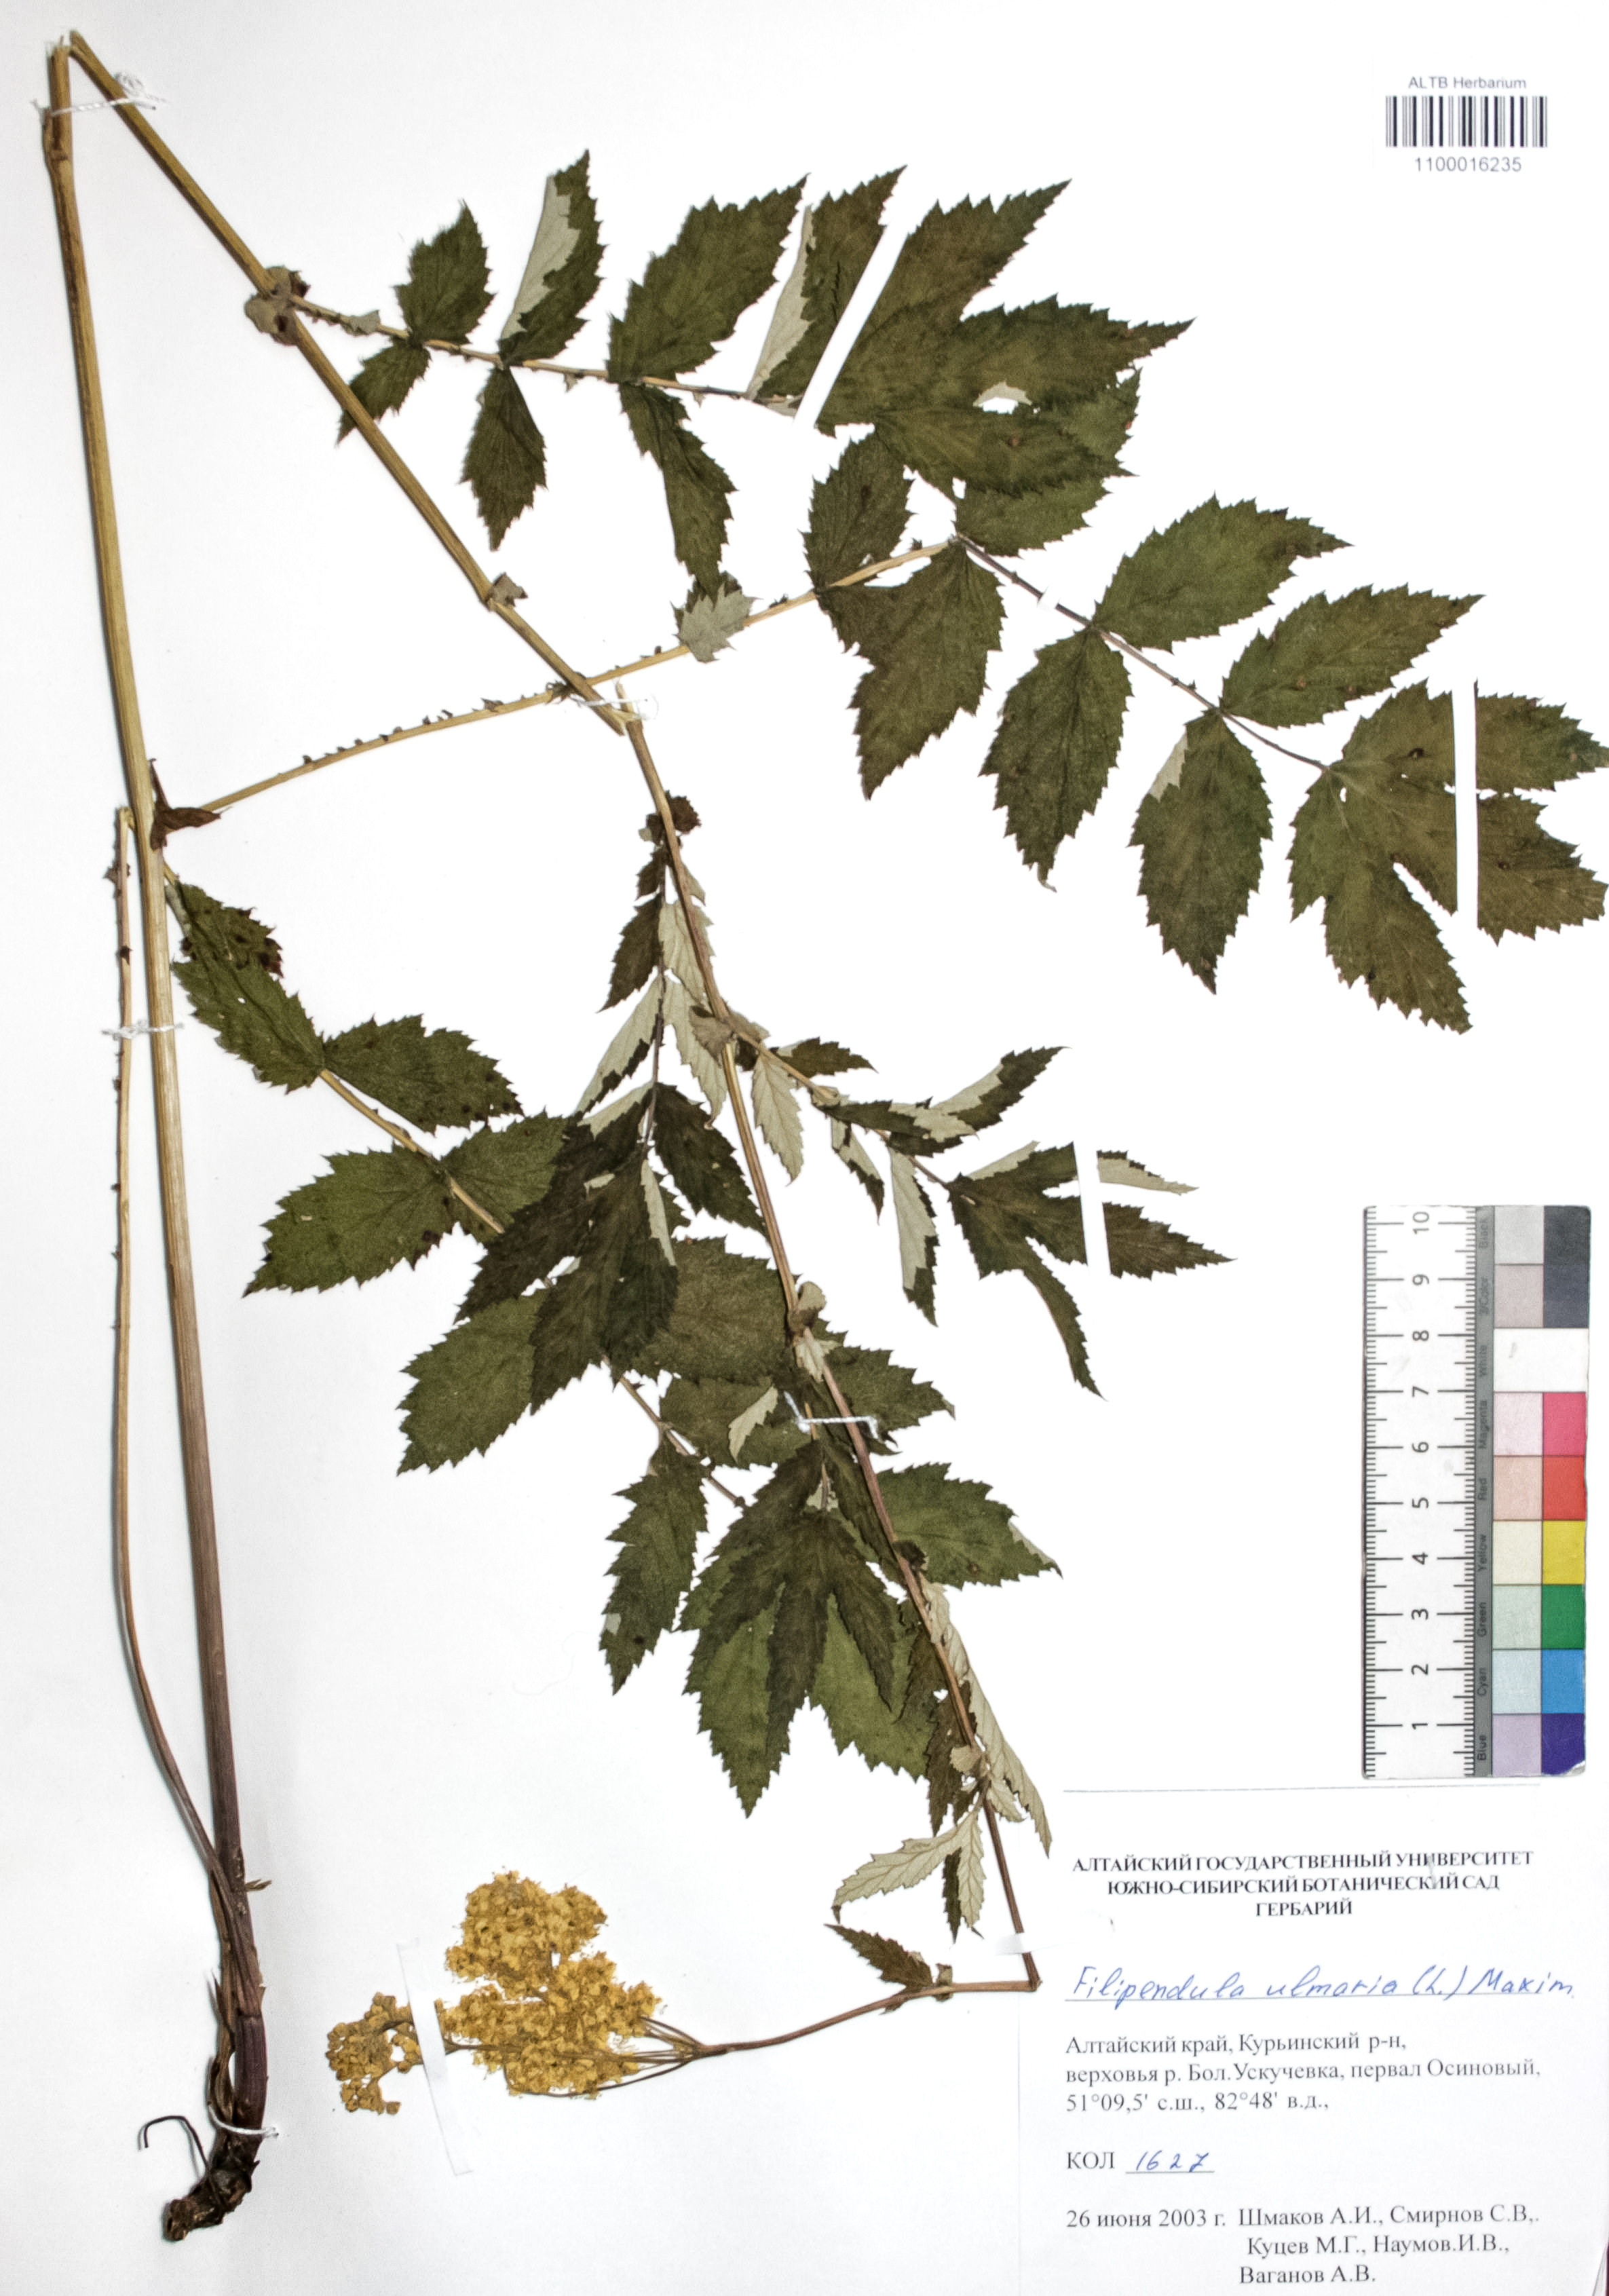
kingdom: Plantae
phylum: Tracheophyta
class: Magnoliopsida
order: Rosales
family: Rosaceae
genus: Filipendula
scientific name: Filipendula ulmaria
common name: Meadowsweet
